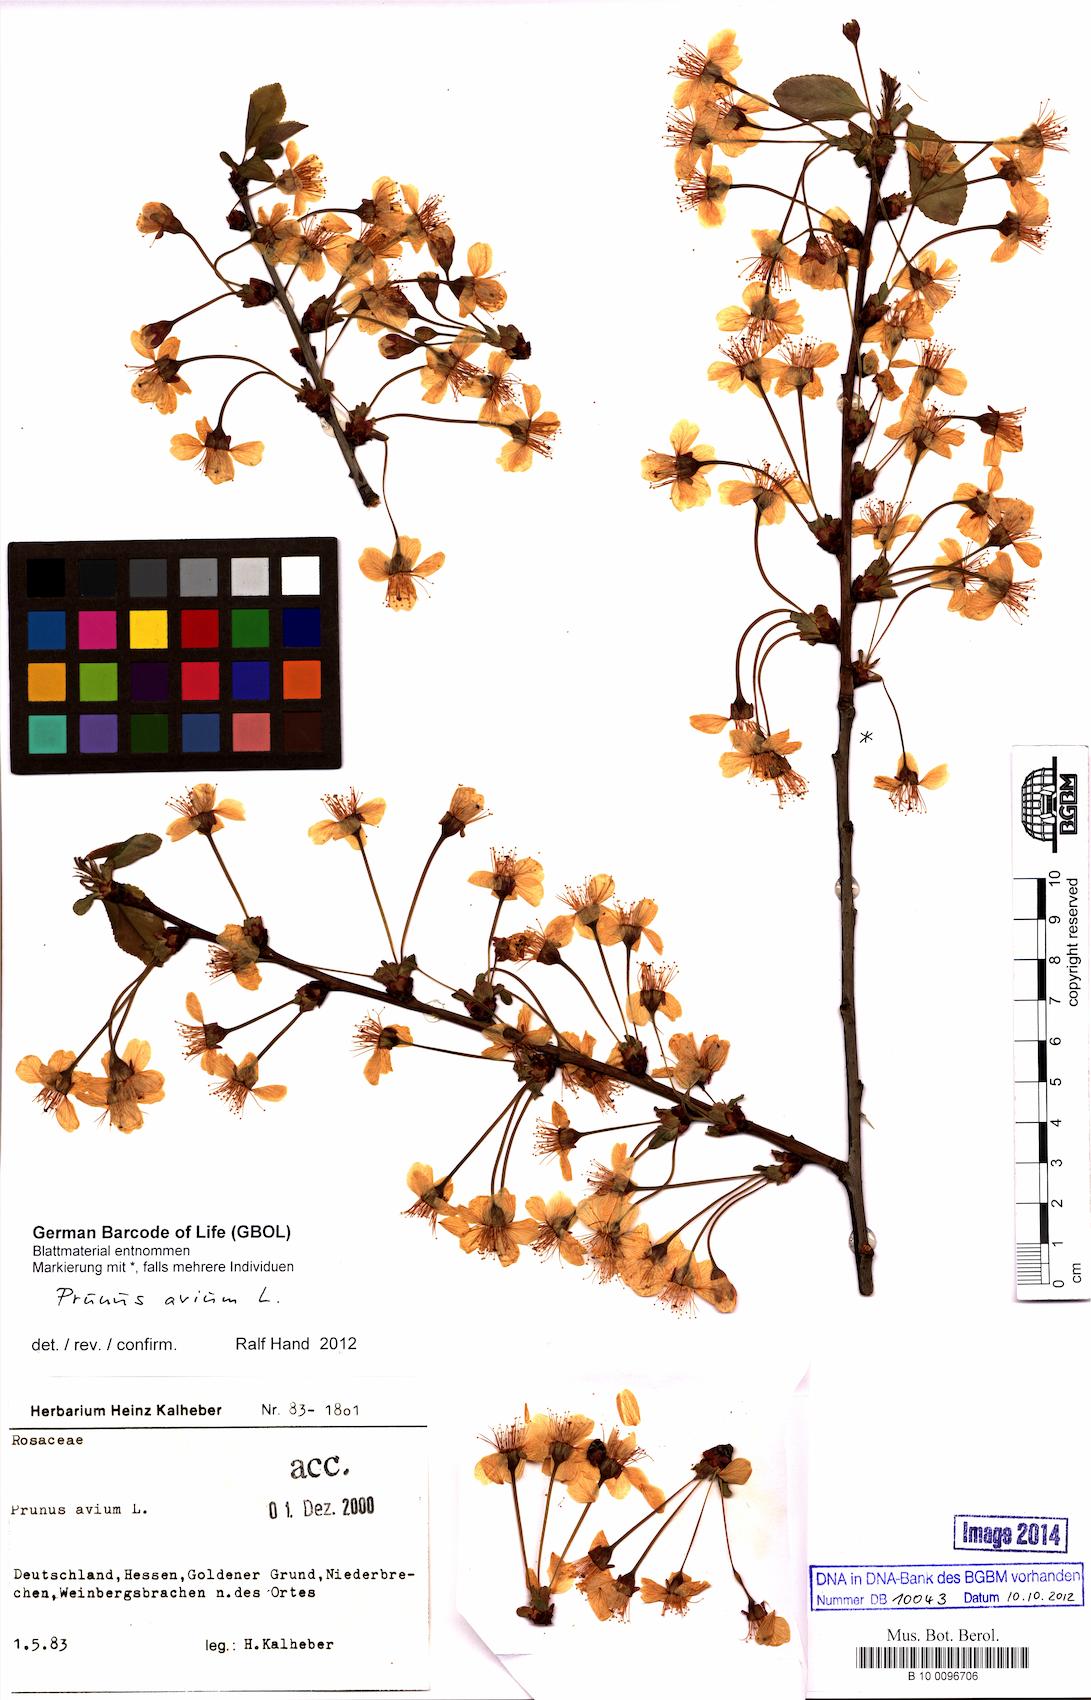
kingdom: Plantae
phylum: Tracheophyta
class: Magnoliopsida
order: Rosales
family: Rosaceae
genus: Prunus
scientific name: Prunus avium
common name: Sweet cherry
